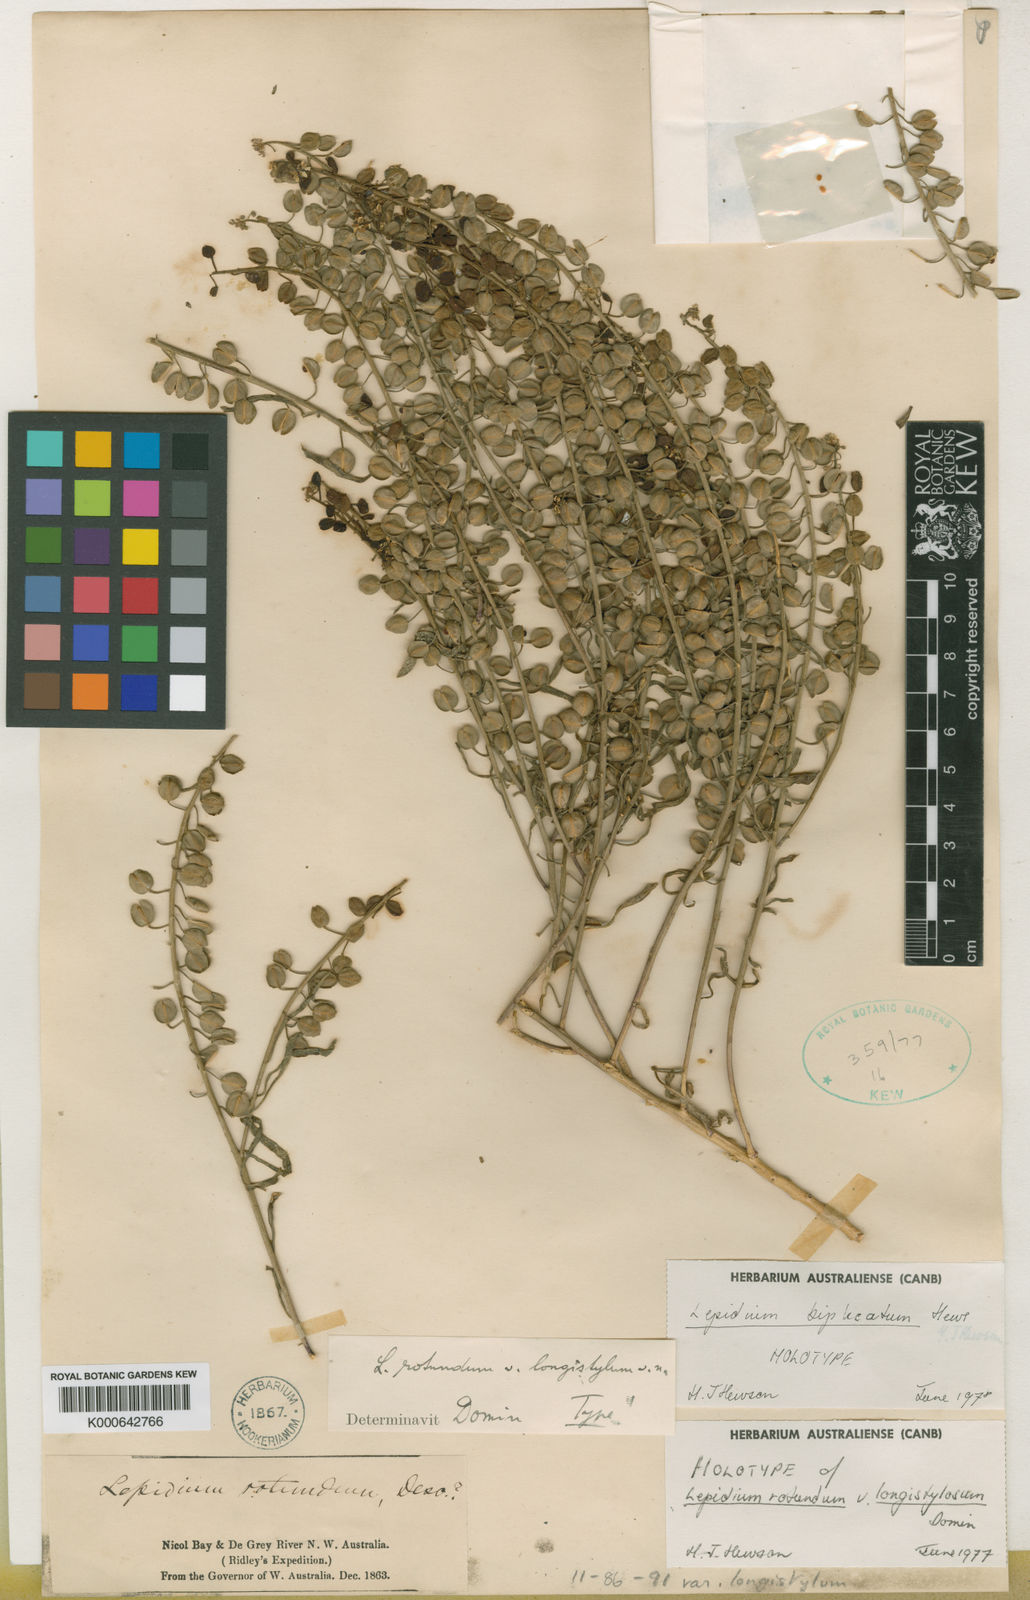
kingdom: Plantae
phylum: Tracheophyta
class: Magnoliopsida
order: Brassicales
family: Brassicaceae
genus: Lepidium
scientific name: Lepidium biplicatum
